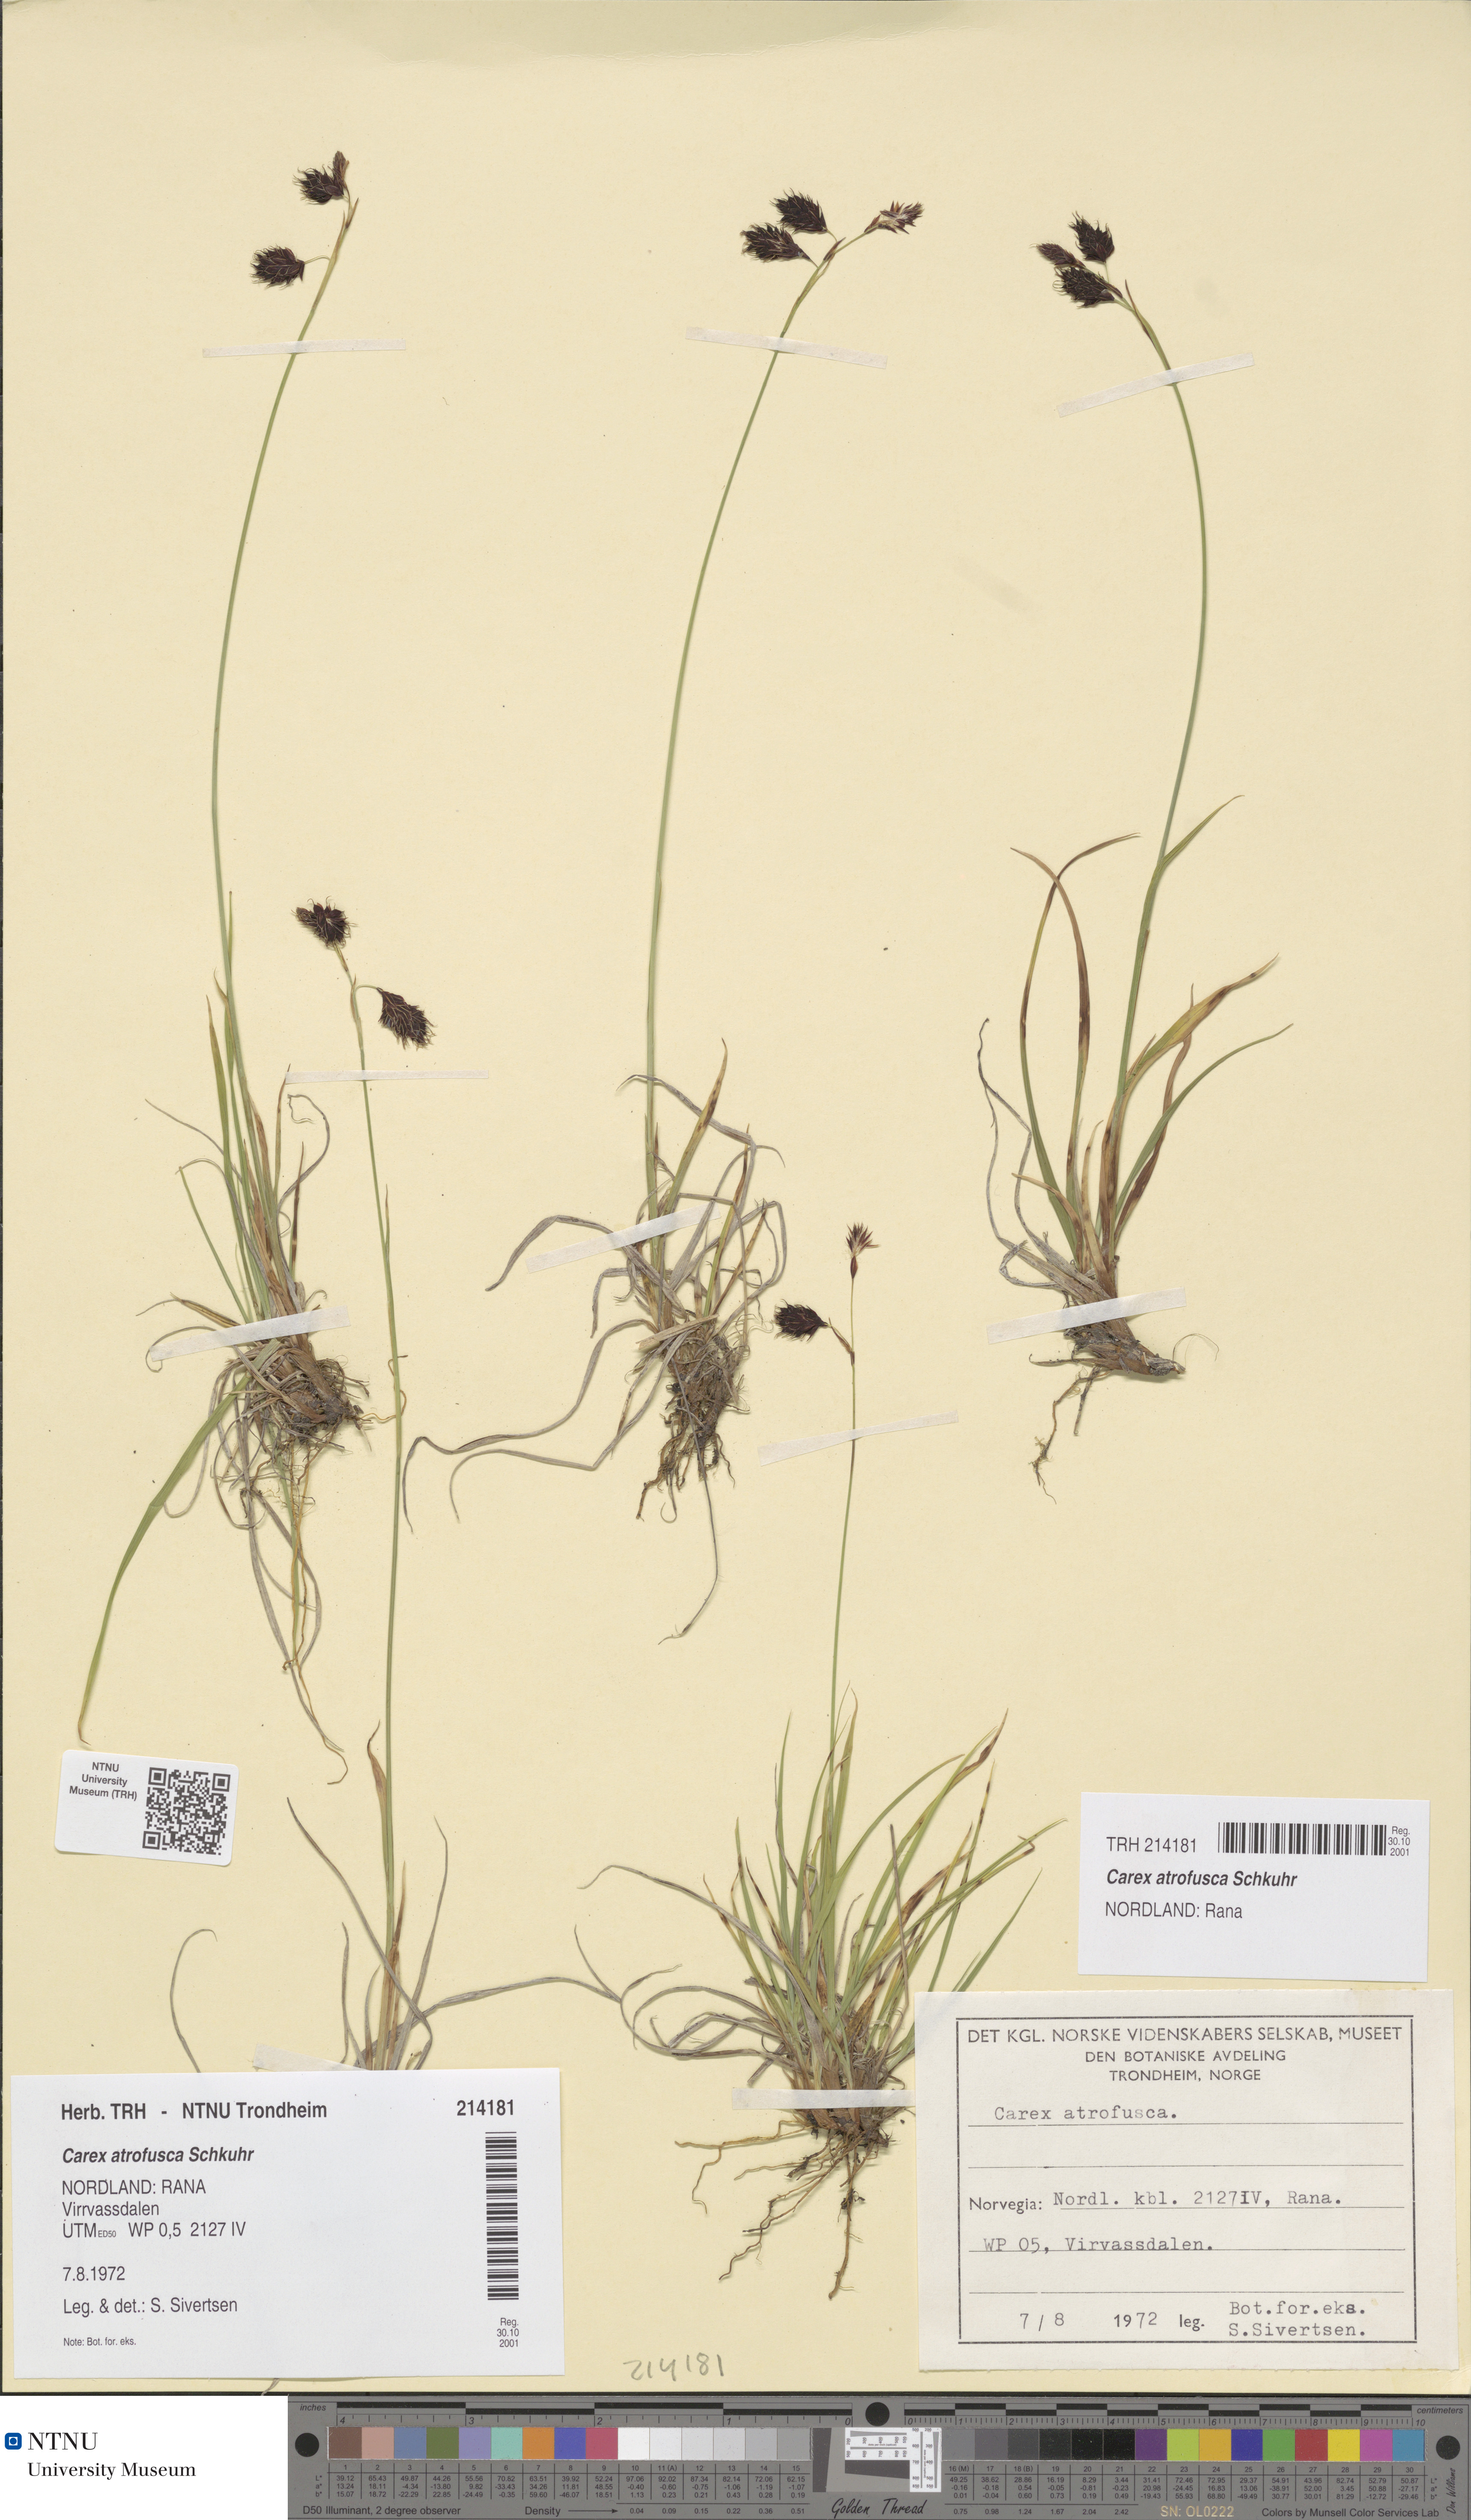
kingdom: Plantae
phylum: Tracheophyta
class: Liliopsida
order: Poales
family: Cyperaceae
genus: Carex
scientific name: Carex atrofusca
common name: Scorched alpine-sedge
